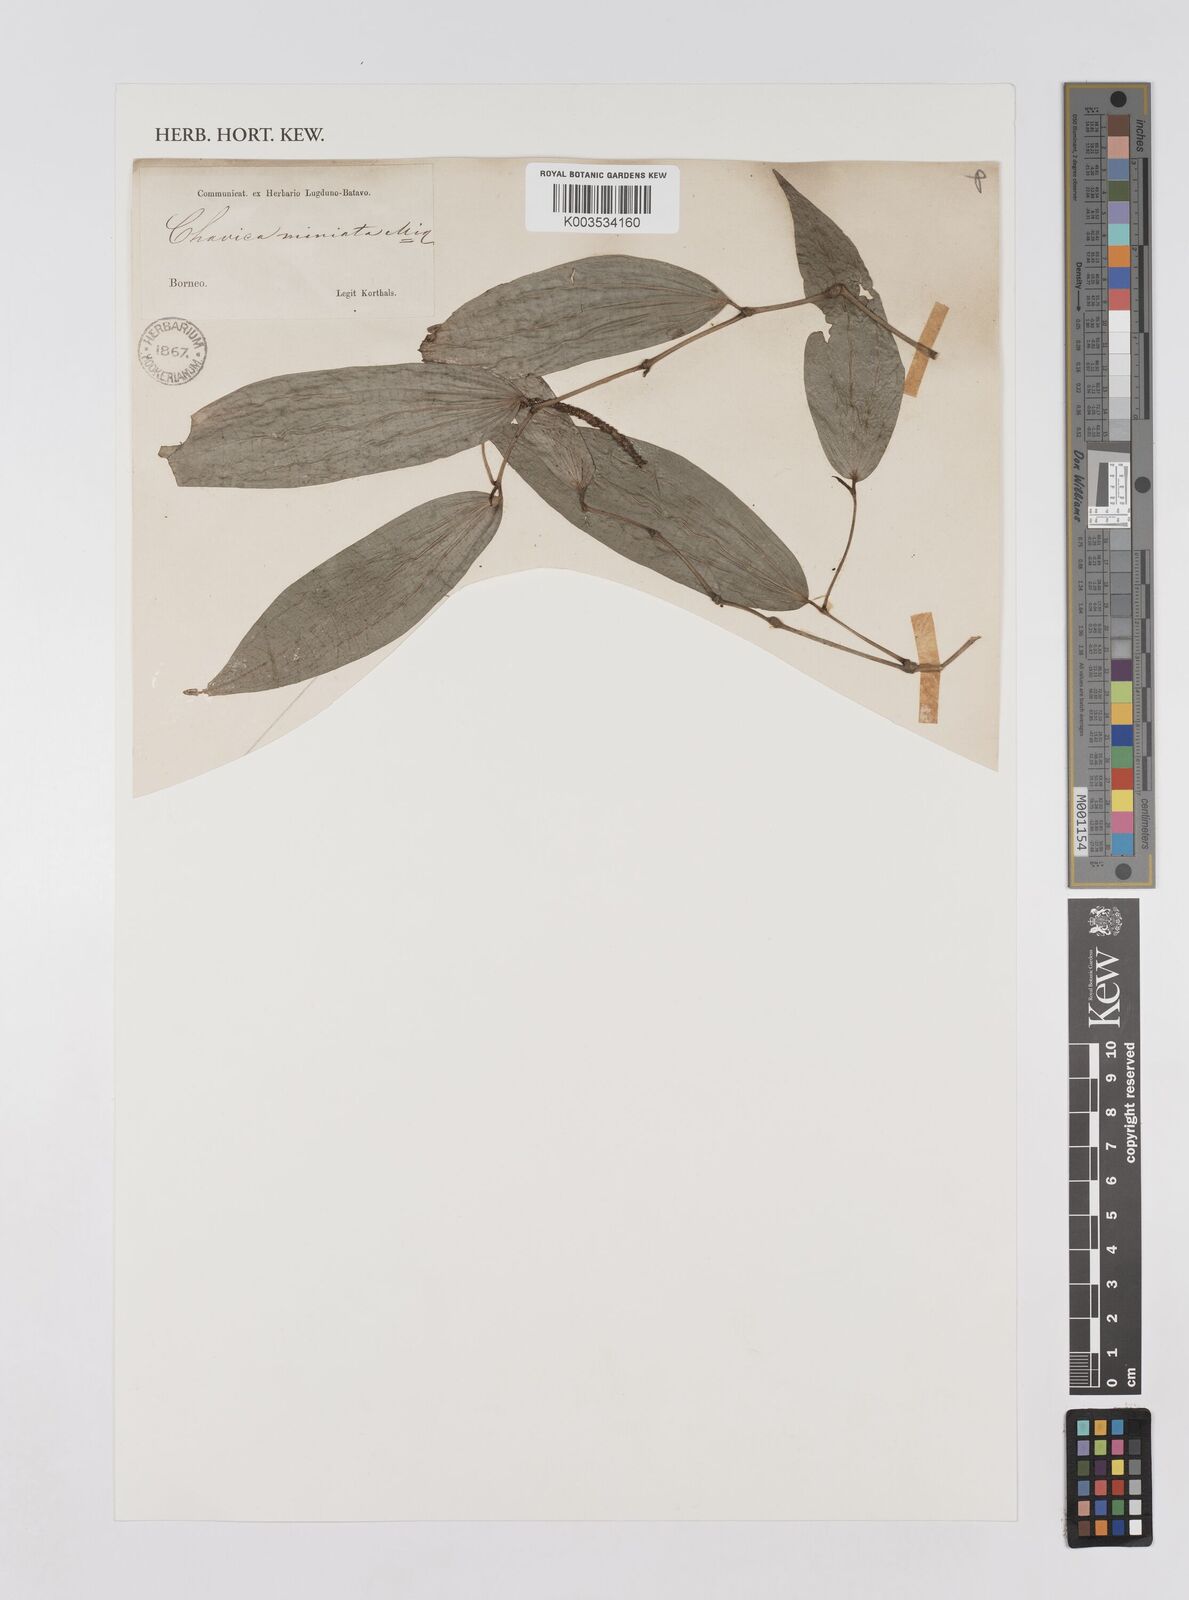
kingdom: Plantae
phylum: Tracheophyta
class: Magnoliopsida
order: Piperales
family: Piperaceae
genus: Piper
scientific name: Piper
